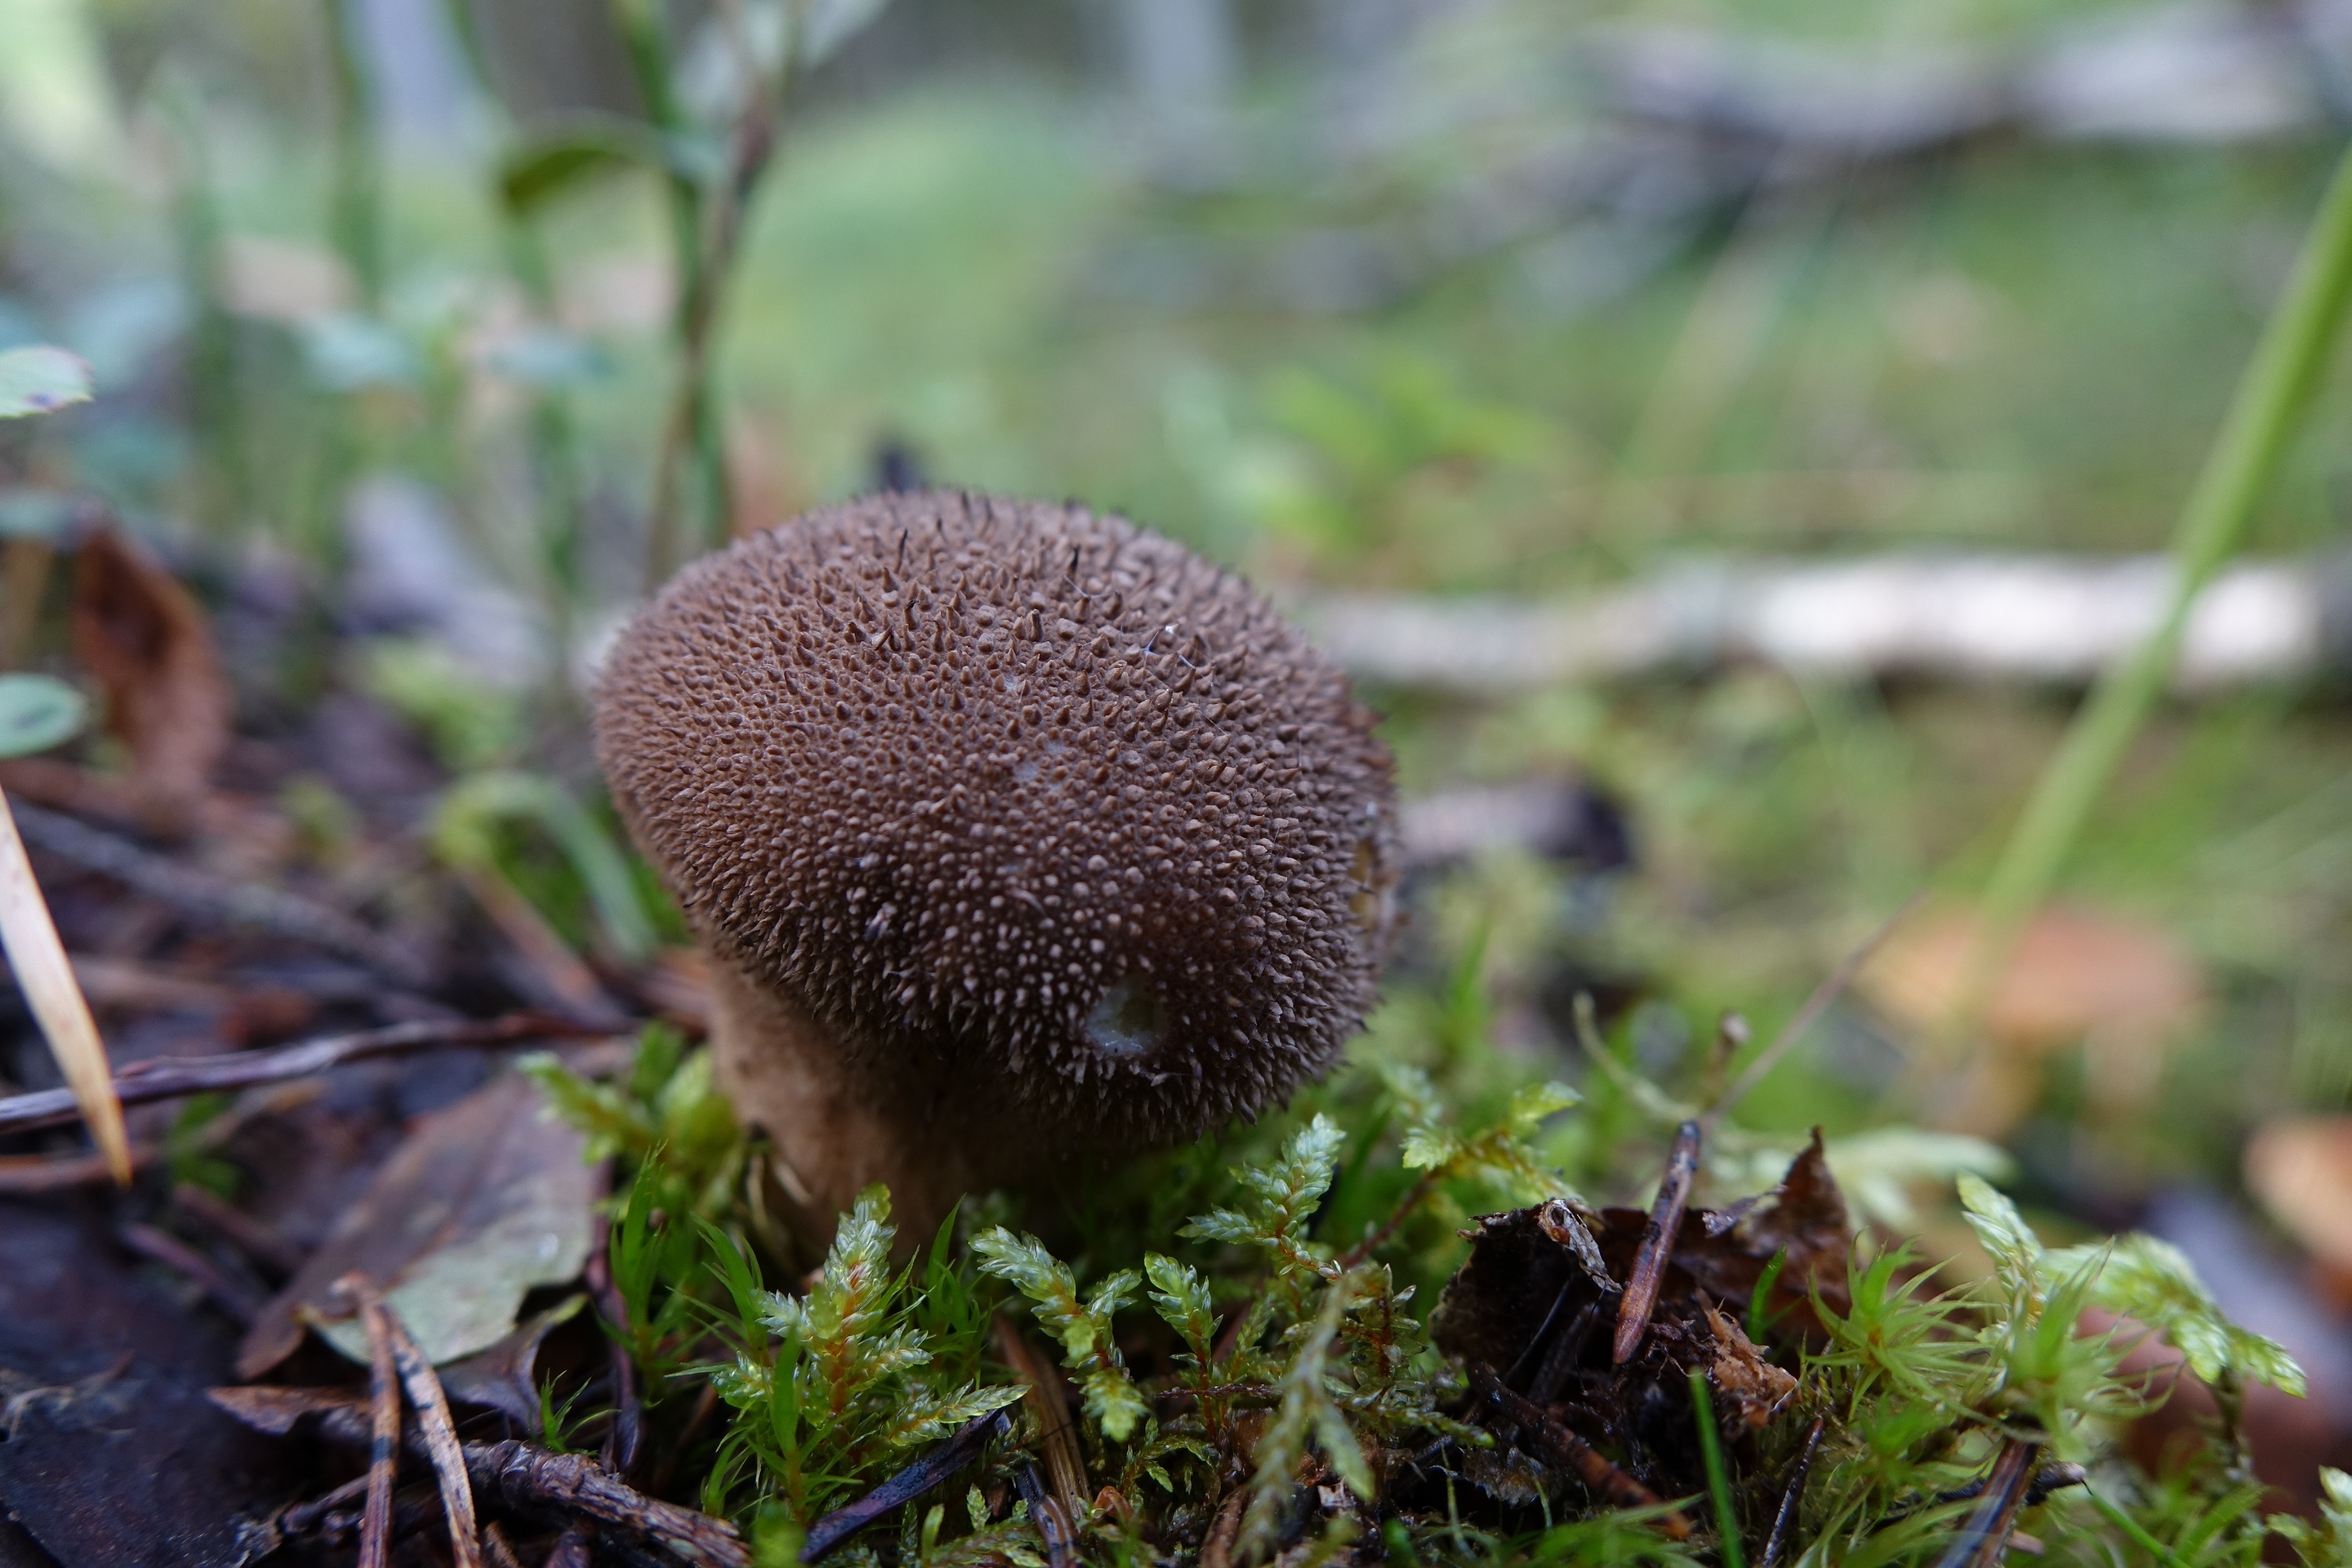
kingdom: Fungi
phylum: Basidiomycota
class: Agaricomycetes
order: Agaricales
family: Lycoperdaceae
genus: Lycoperdon
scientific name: Lycoperdon nigrescens
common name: Blackish puffball
